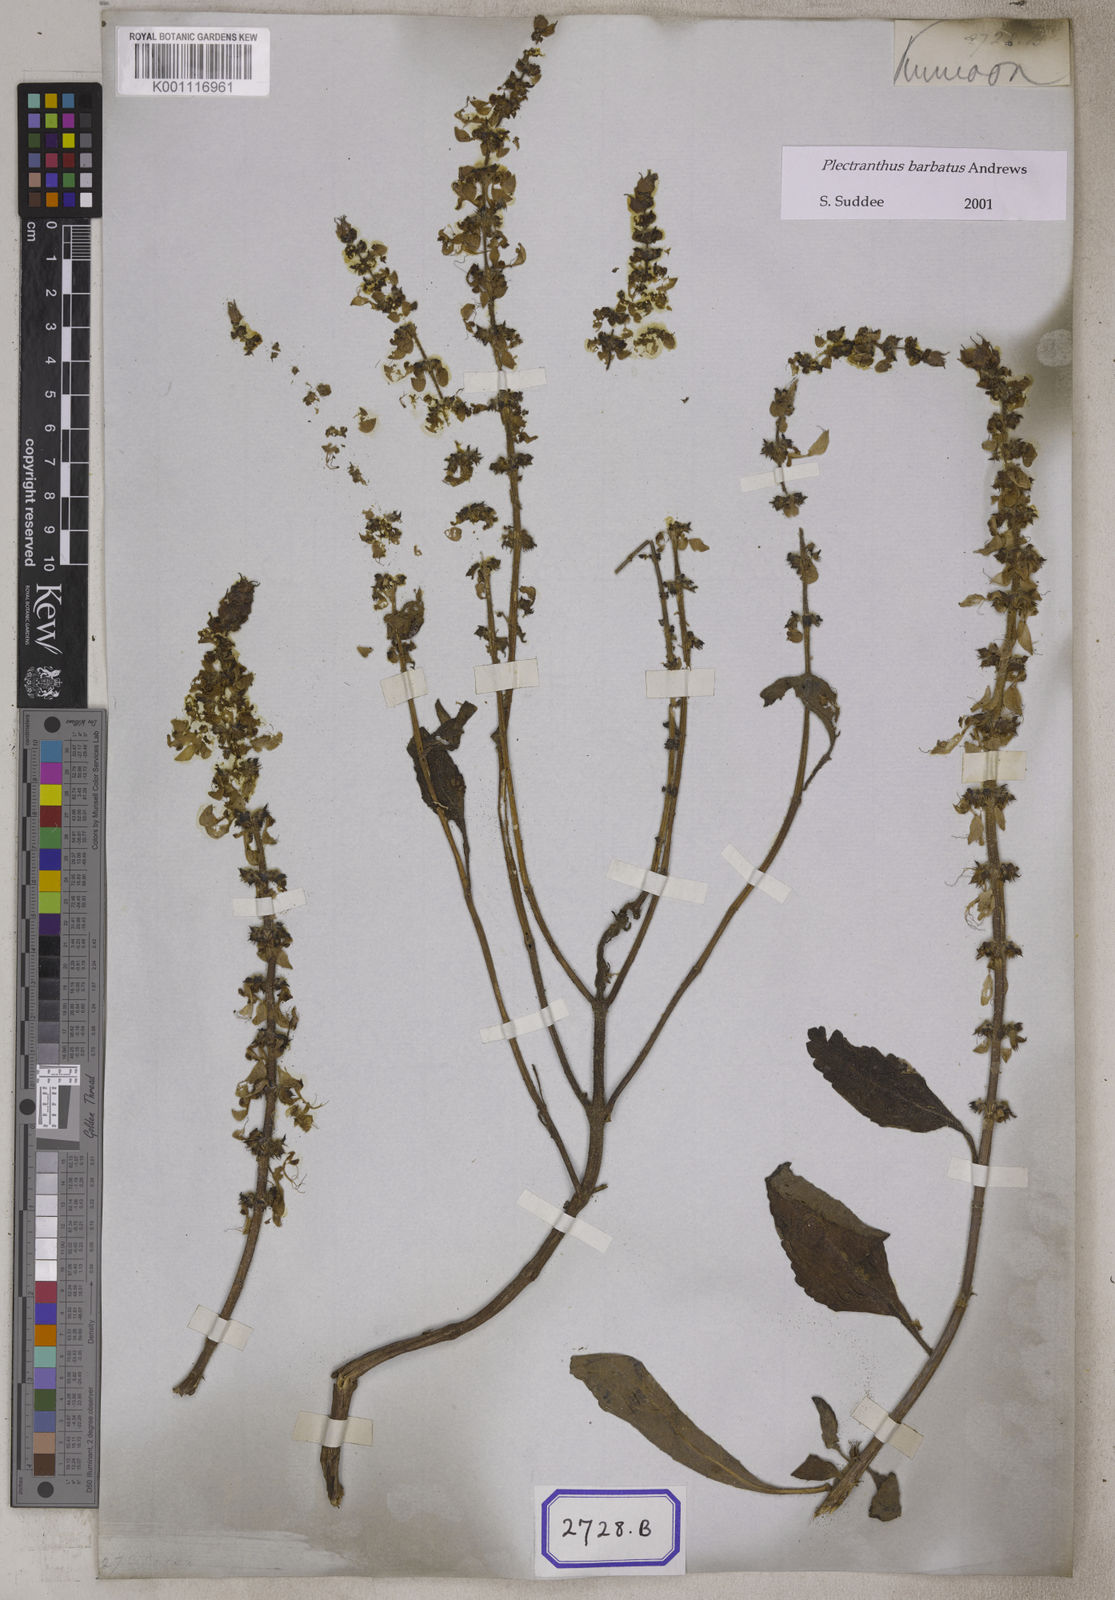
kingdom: Plantae
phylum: Tracheophyta
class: Magnoliopsida
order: Lamiales
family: Lamiaceae
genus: Coleus
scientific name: Coleus
